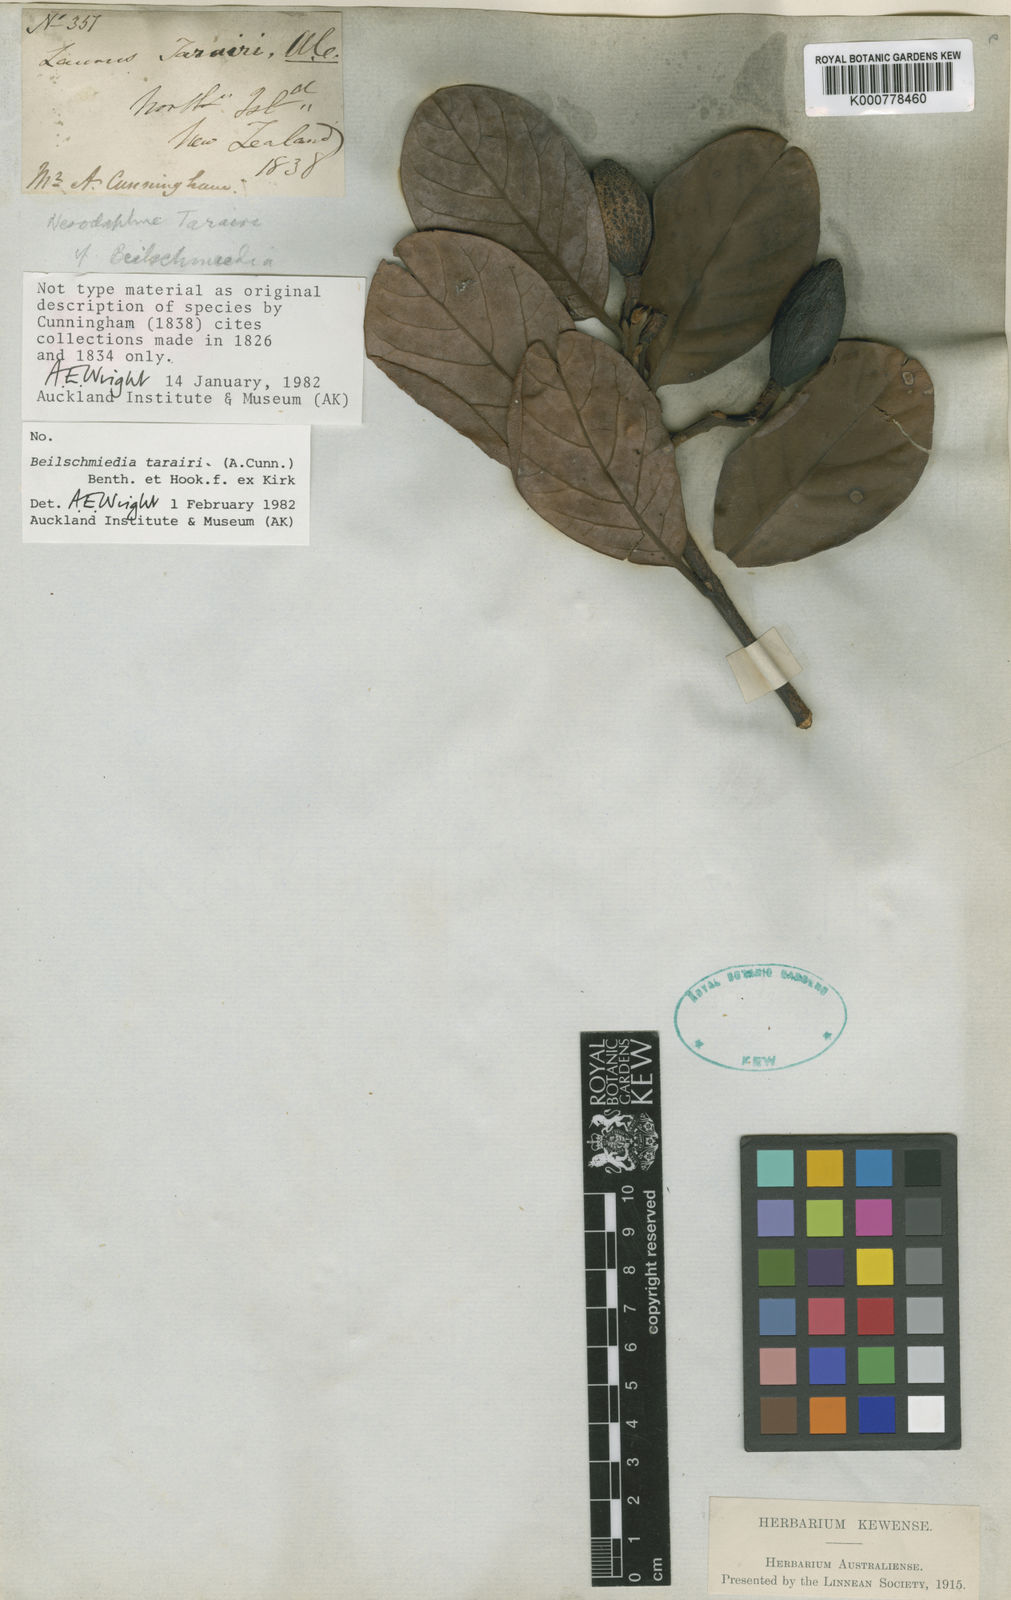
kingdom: Plantae
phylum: Tracheophyta
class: Magnoliopsida
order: Laurales
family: Lauraceae
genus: Beilschmiedia
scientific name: Beilschmiedia tarairi
